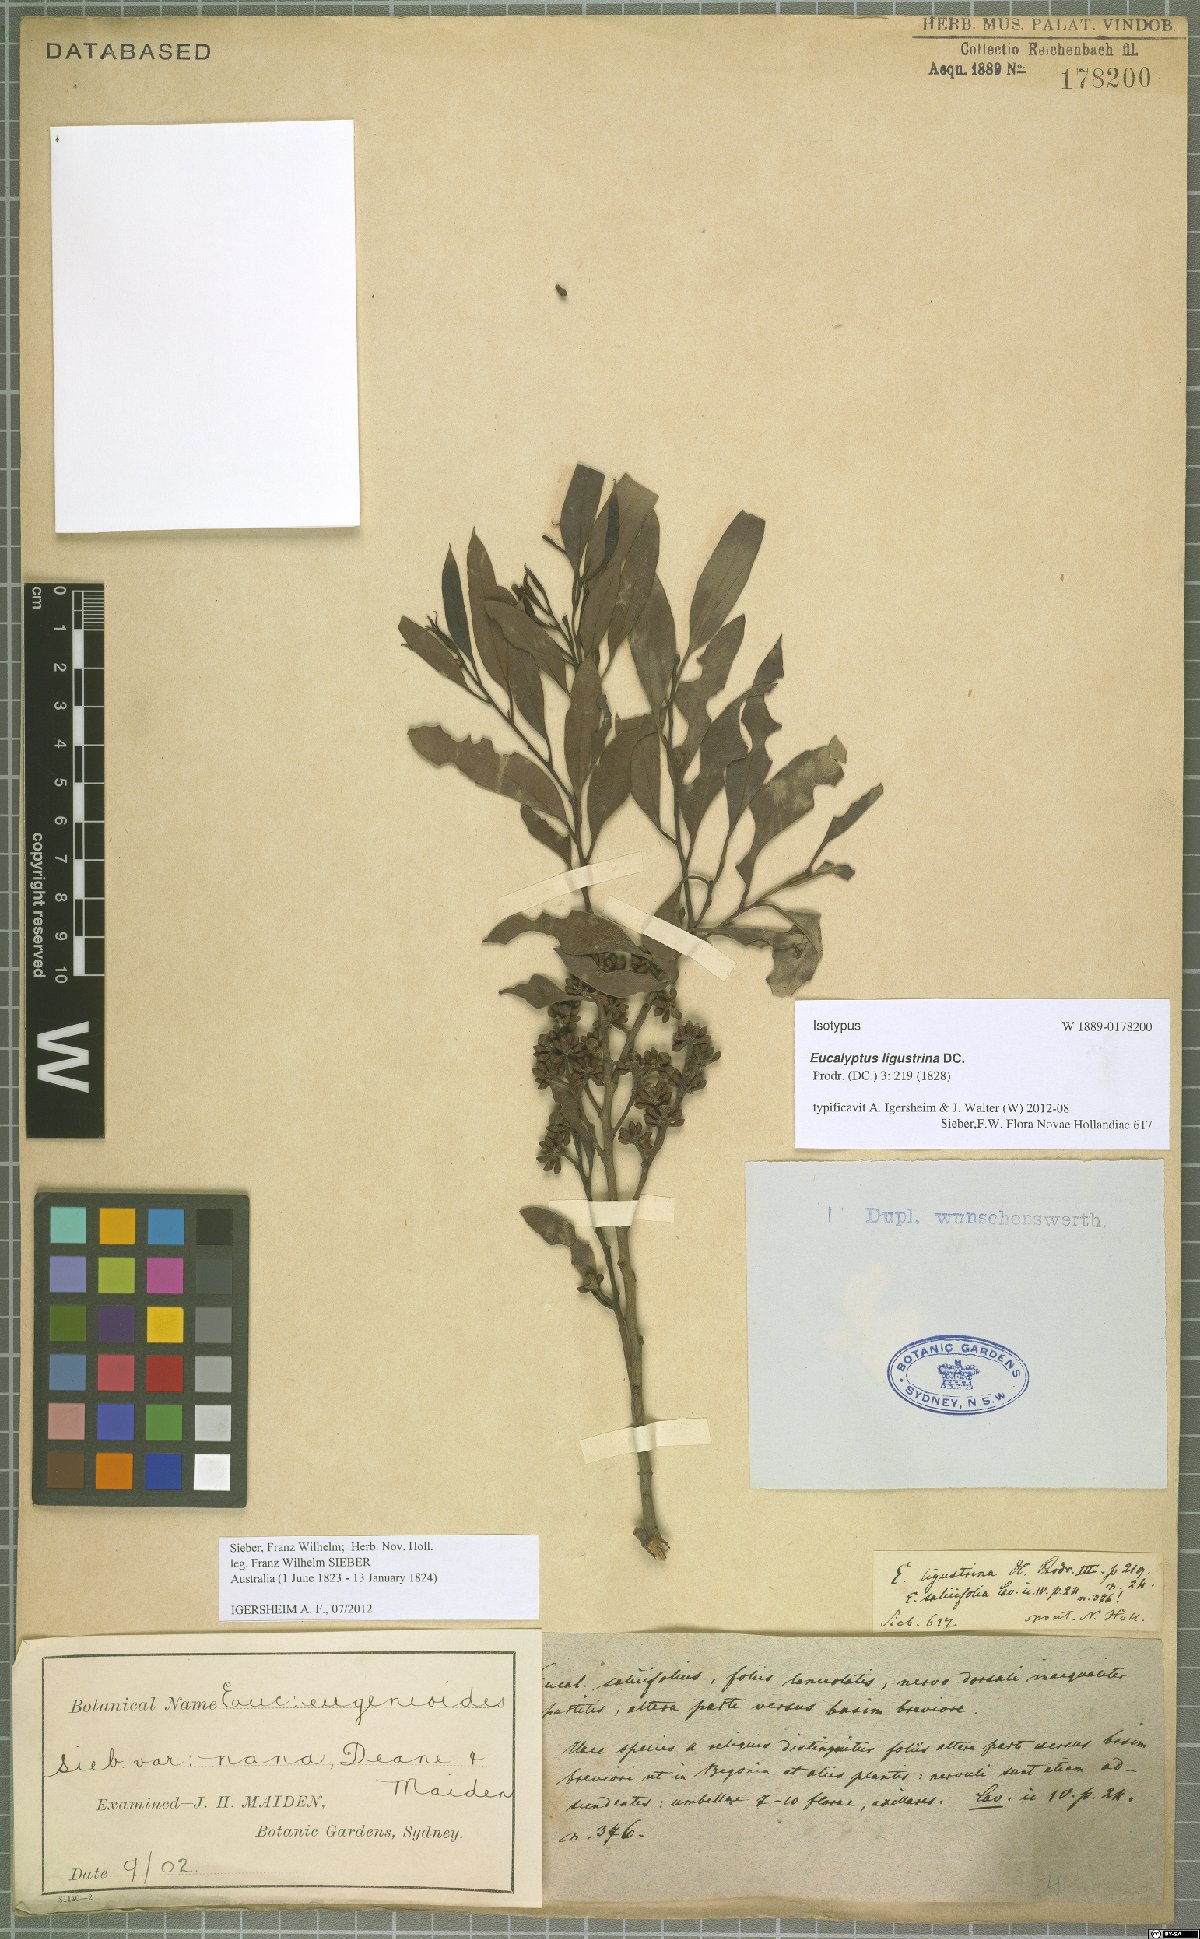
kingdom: Plantae
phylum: Tracheophyta
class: Magnoliopsida
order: Myrtales
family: Myrtaceae
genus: Eucalyptus
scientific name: Eucalyptus ligustrina
